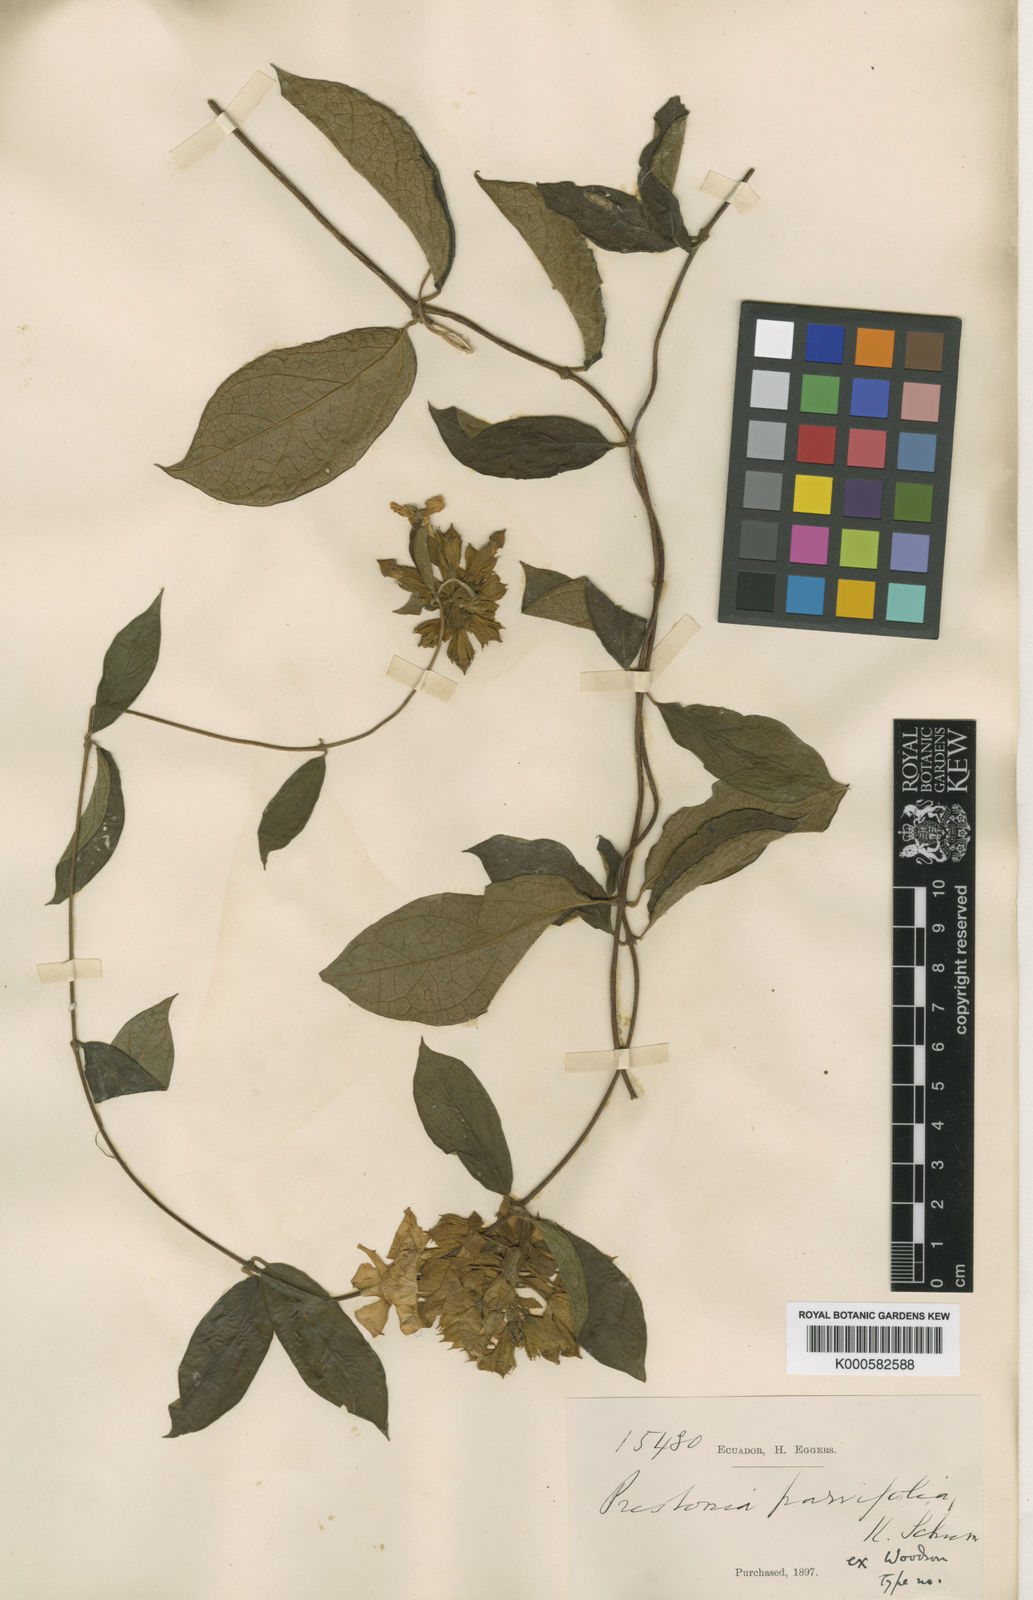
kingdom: Plantae
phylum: Tracheophyta
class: Magnoliopsida
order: Gentianales
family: Apocynaceae
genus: Prestonia
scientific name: Prestonia parvifolia
